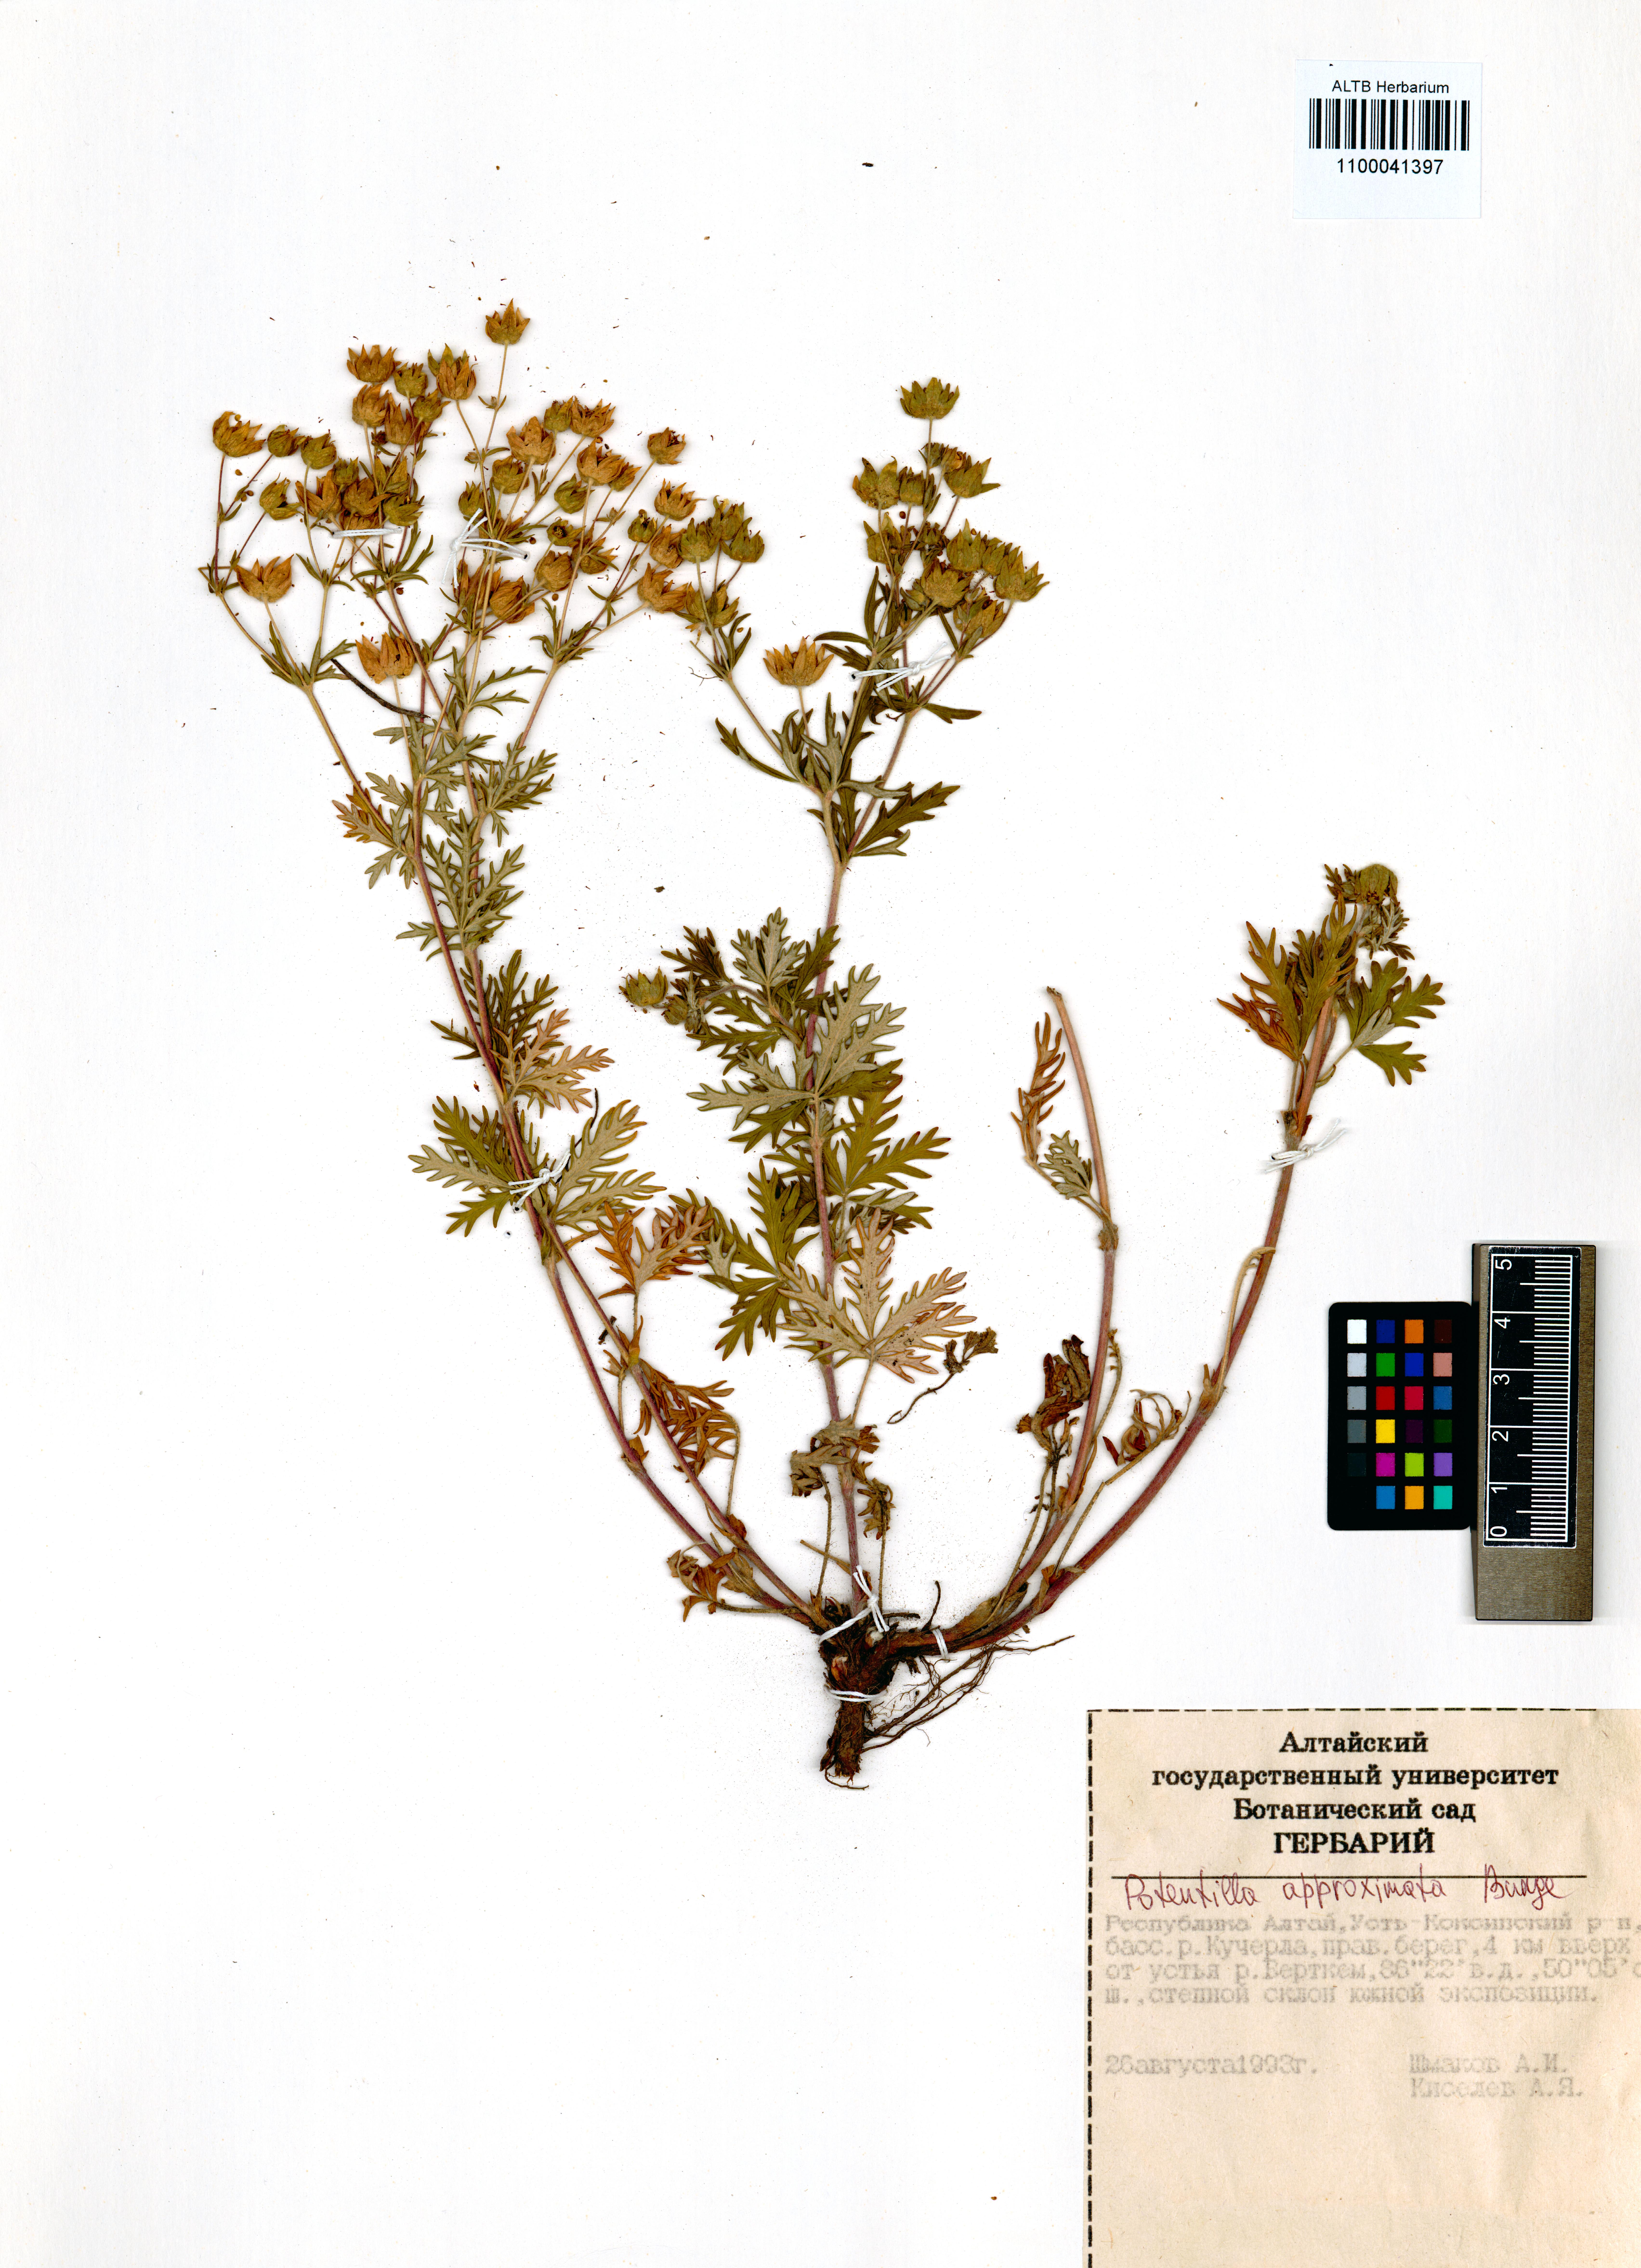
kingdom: Plantae
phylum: Tracheophyta
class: Magnoliopsida
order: Rosales
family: Rosaceae
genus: Potentilla
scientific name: Potentilla conferta
